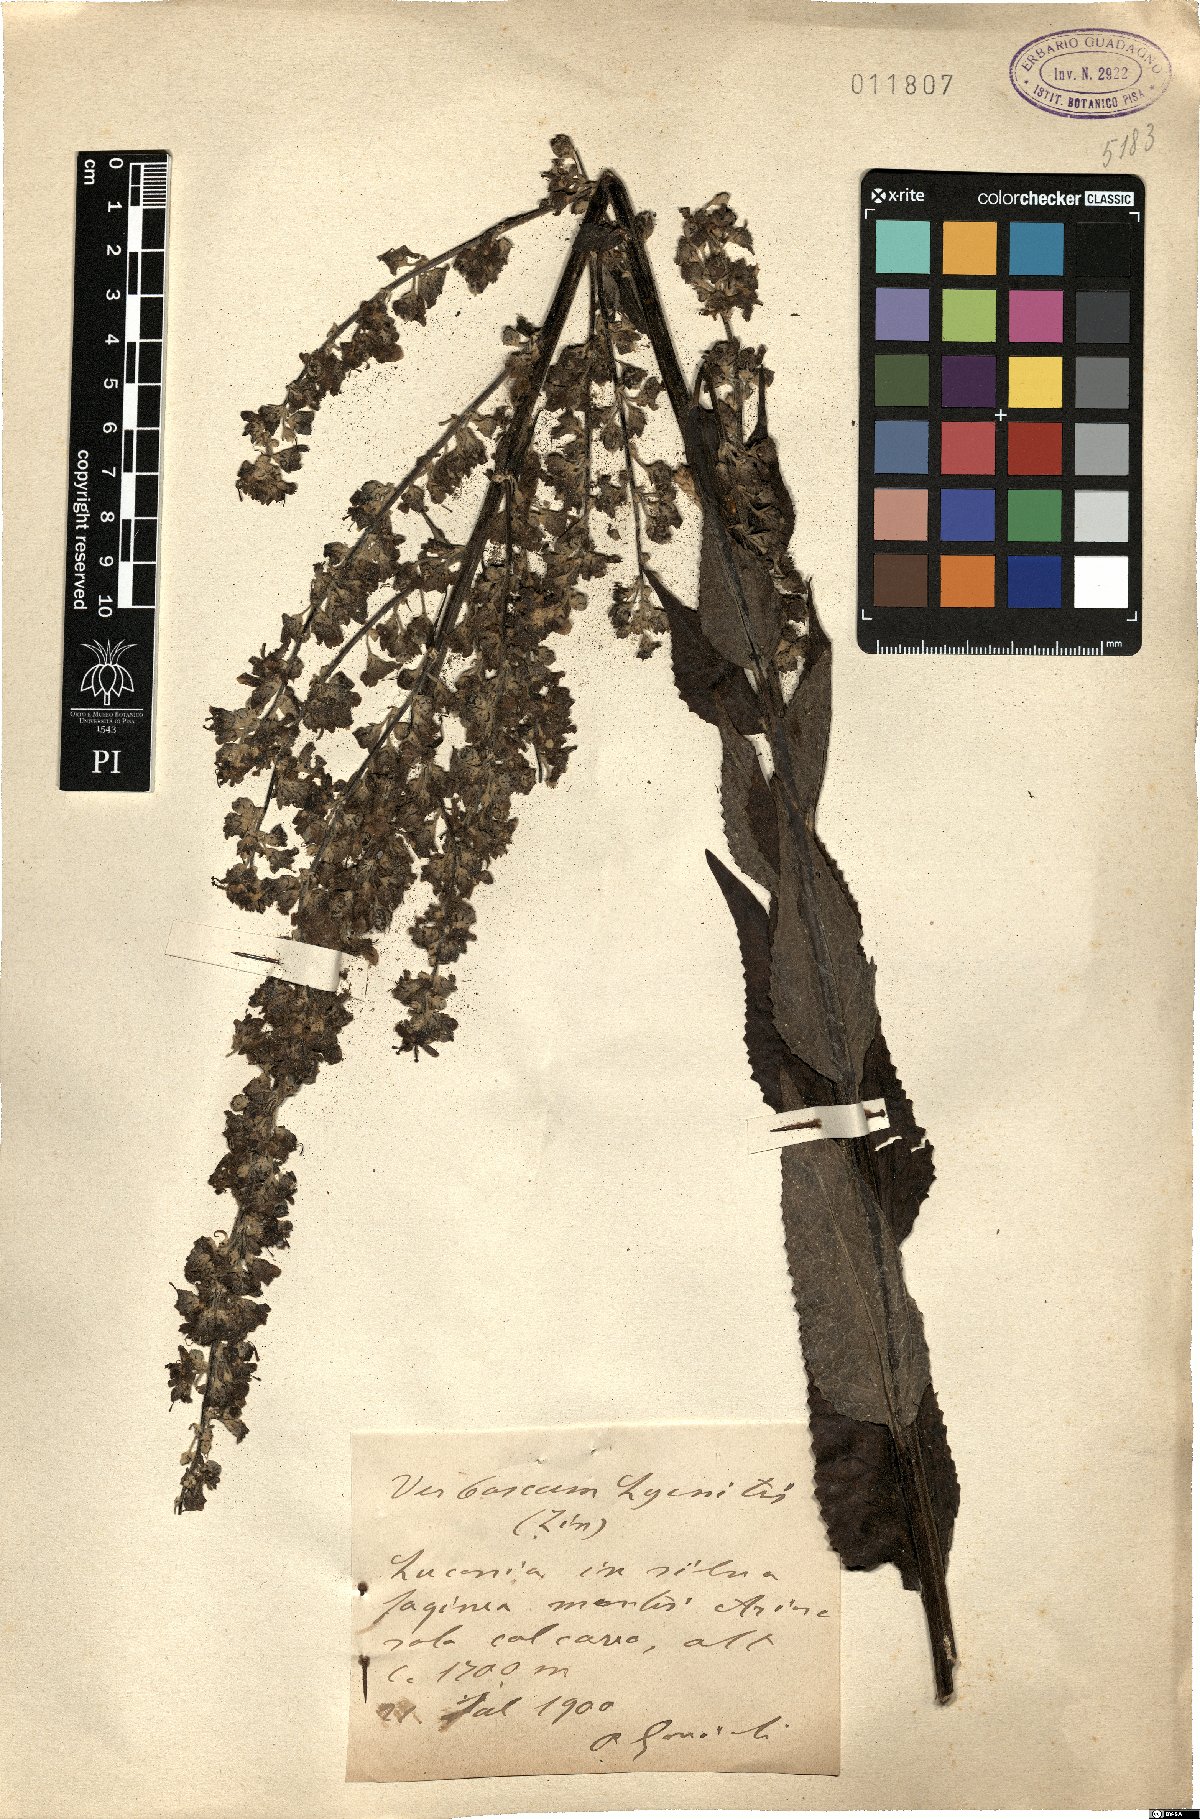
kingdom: Plantae
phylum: Tracheophyta
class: Magnoliopsida
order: Lamiales
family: Scrophulariaceae
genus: Verbascum
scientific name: Verbascum lychnitis
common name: White mullein
